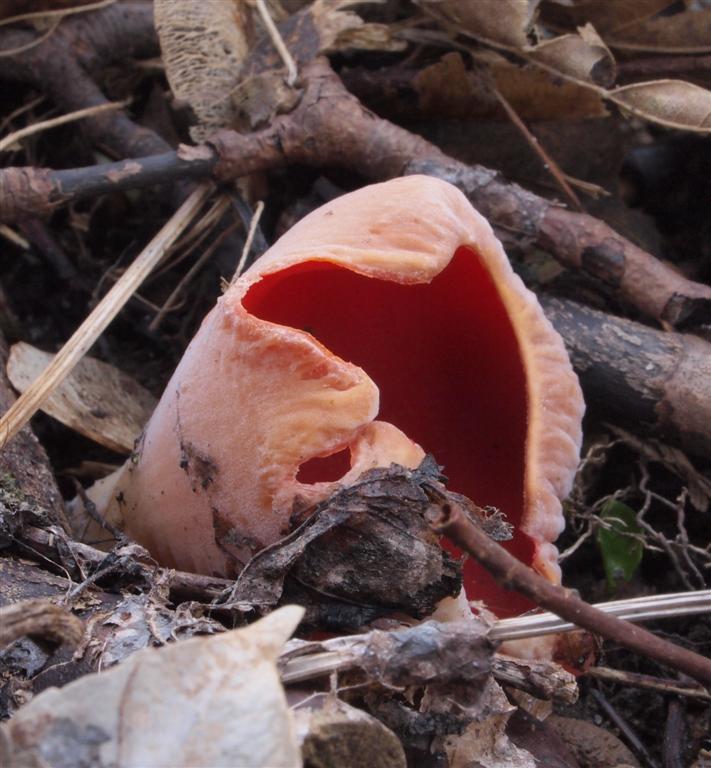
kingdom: Fungi
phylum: Ascomycota
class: Pezizomycetes
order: Pezizales
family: Sarcoscyphaceae
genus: Sarcoscypha
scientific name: Sarcoscypha austriaca
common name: krølhåret pragtbæger
